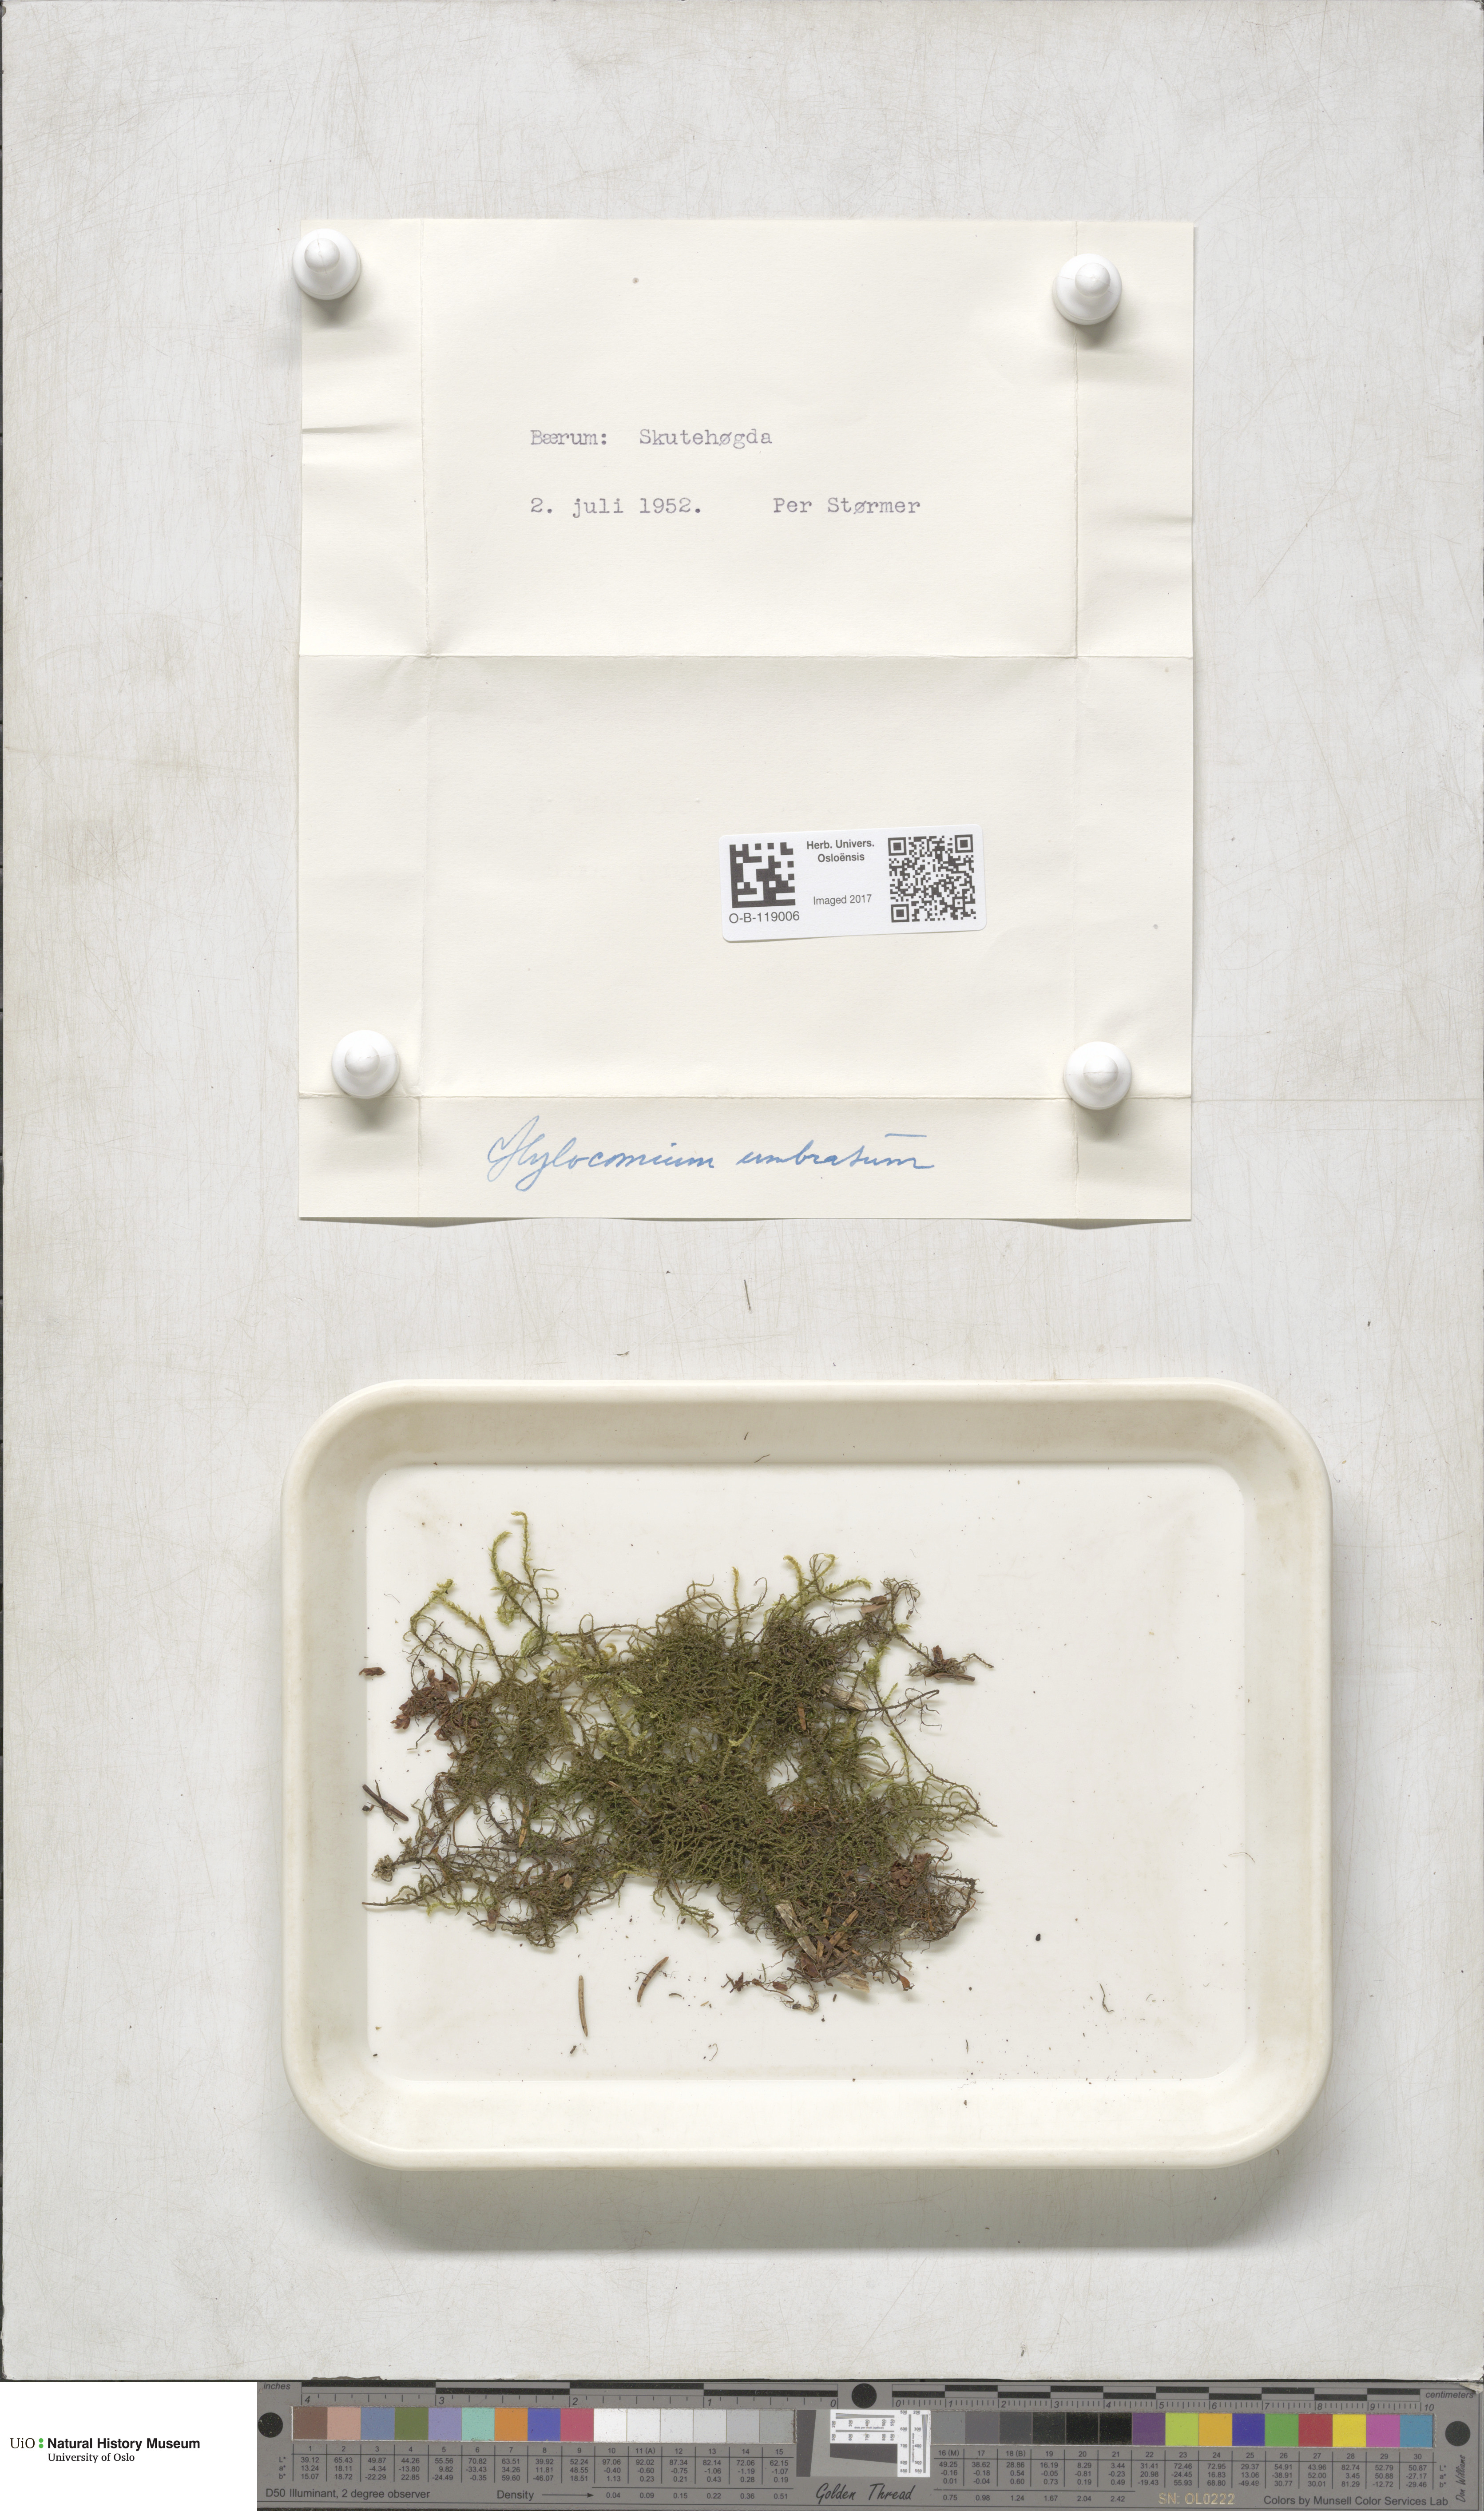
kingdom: Plantae
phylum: Bryophyta
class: Bryopsida
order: Hypnales
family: Hylocomiaceae
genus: Hylocomiastrum
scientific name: Hylocomiastrum umbratum
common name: Shaded woods moss
